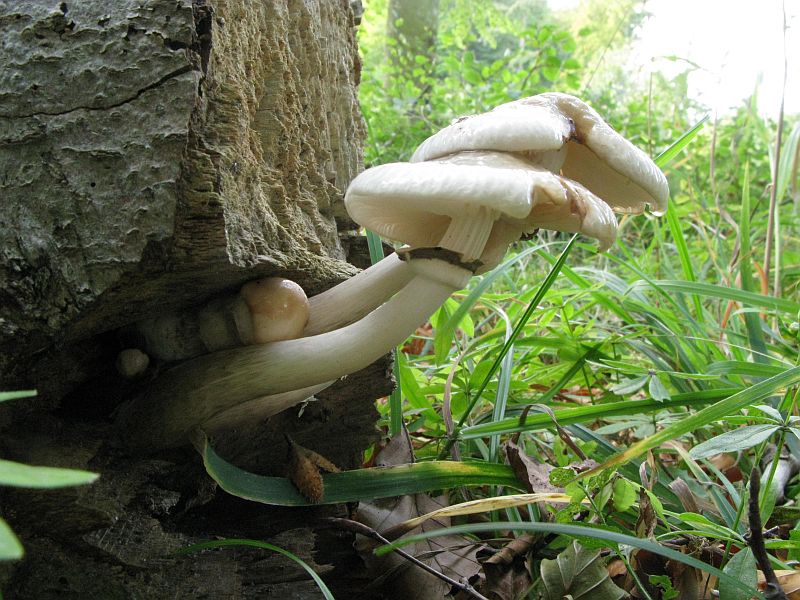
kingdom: Fungi
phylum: Basidiomycota
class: Agaricomycetes
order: Agaricales
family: Physalacriaceae
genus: Mucidula
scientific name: Mucidula mucida
